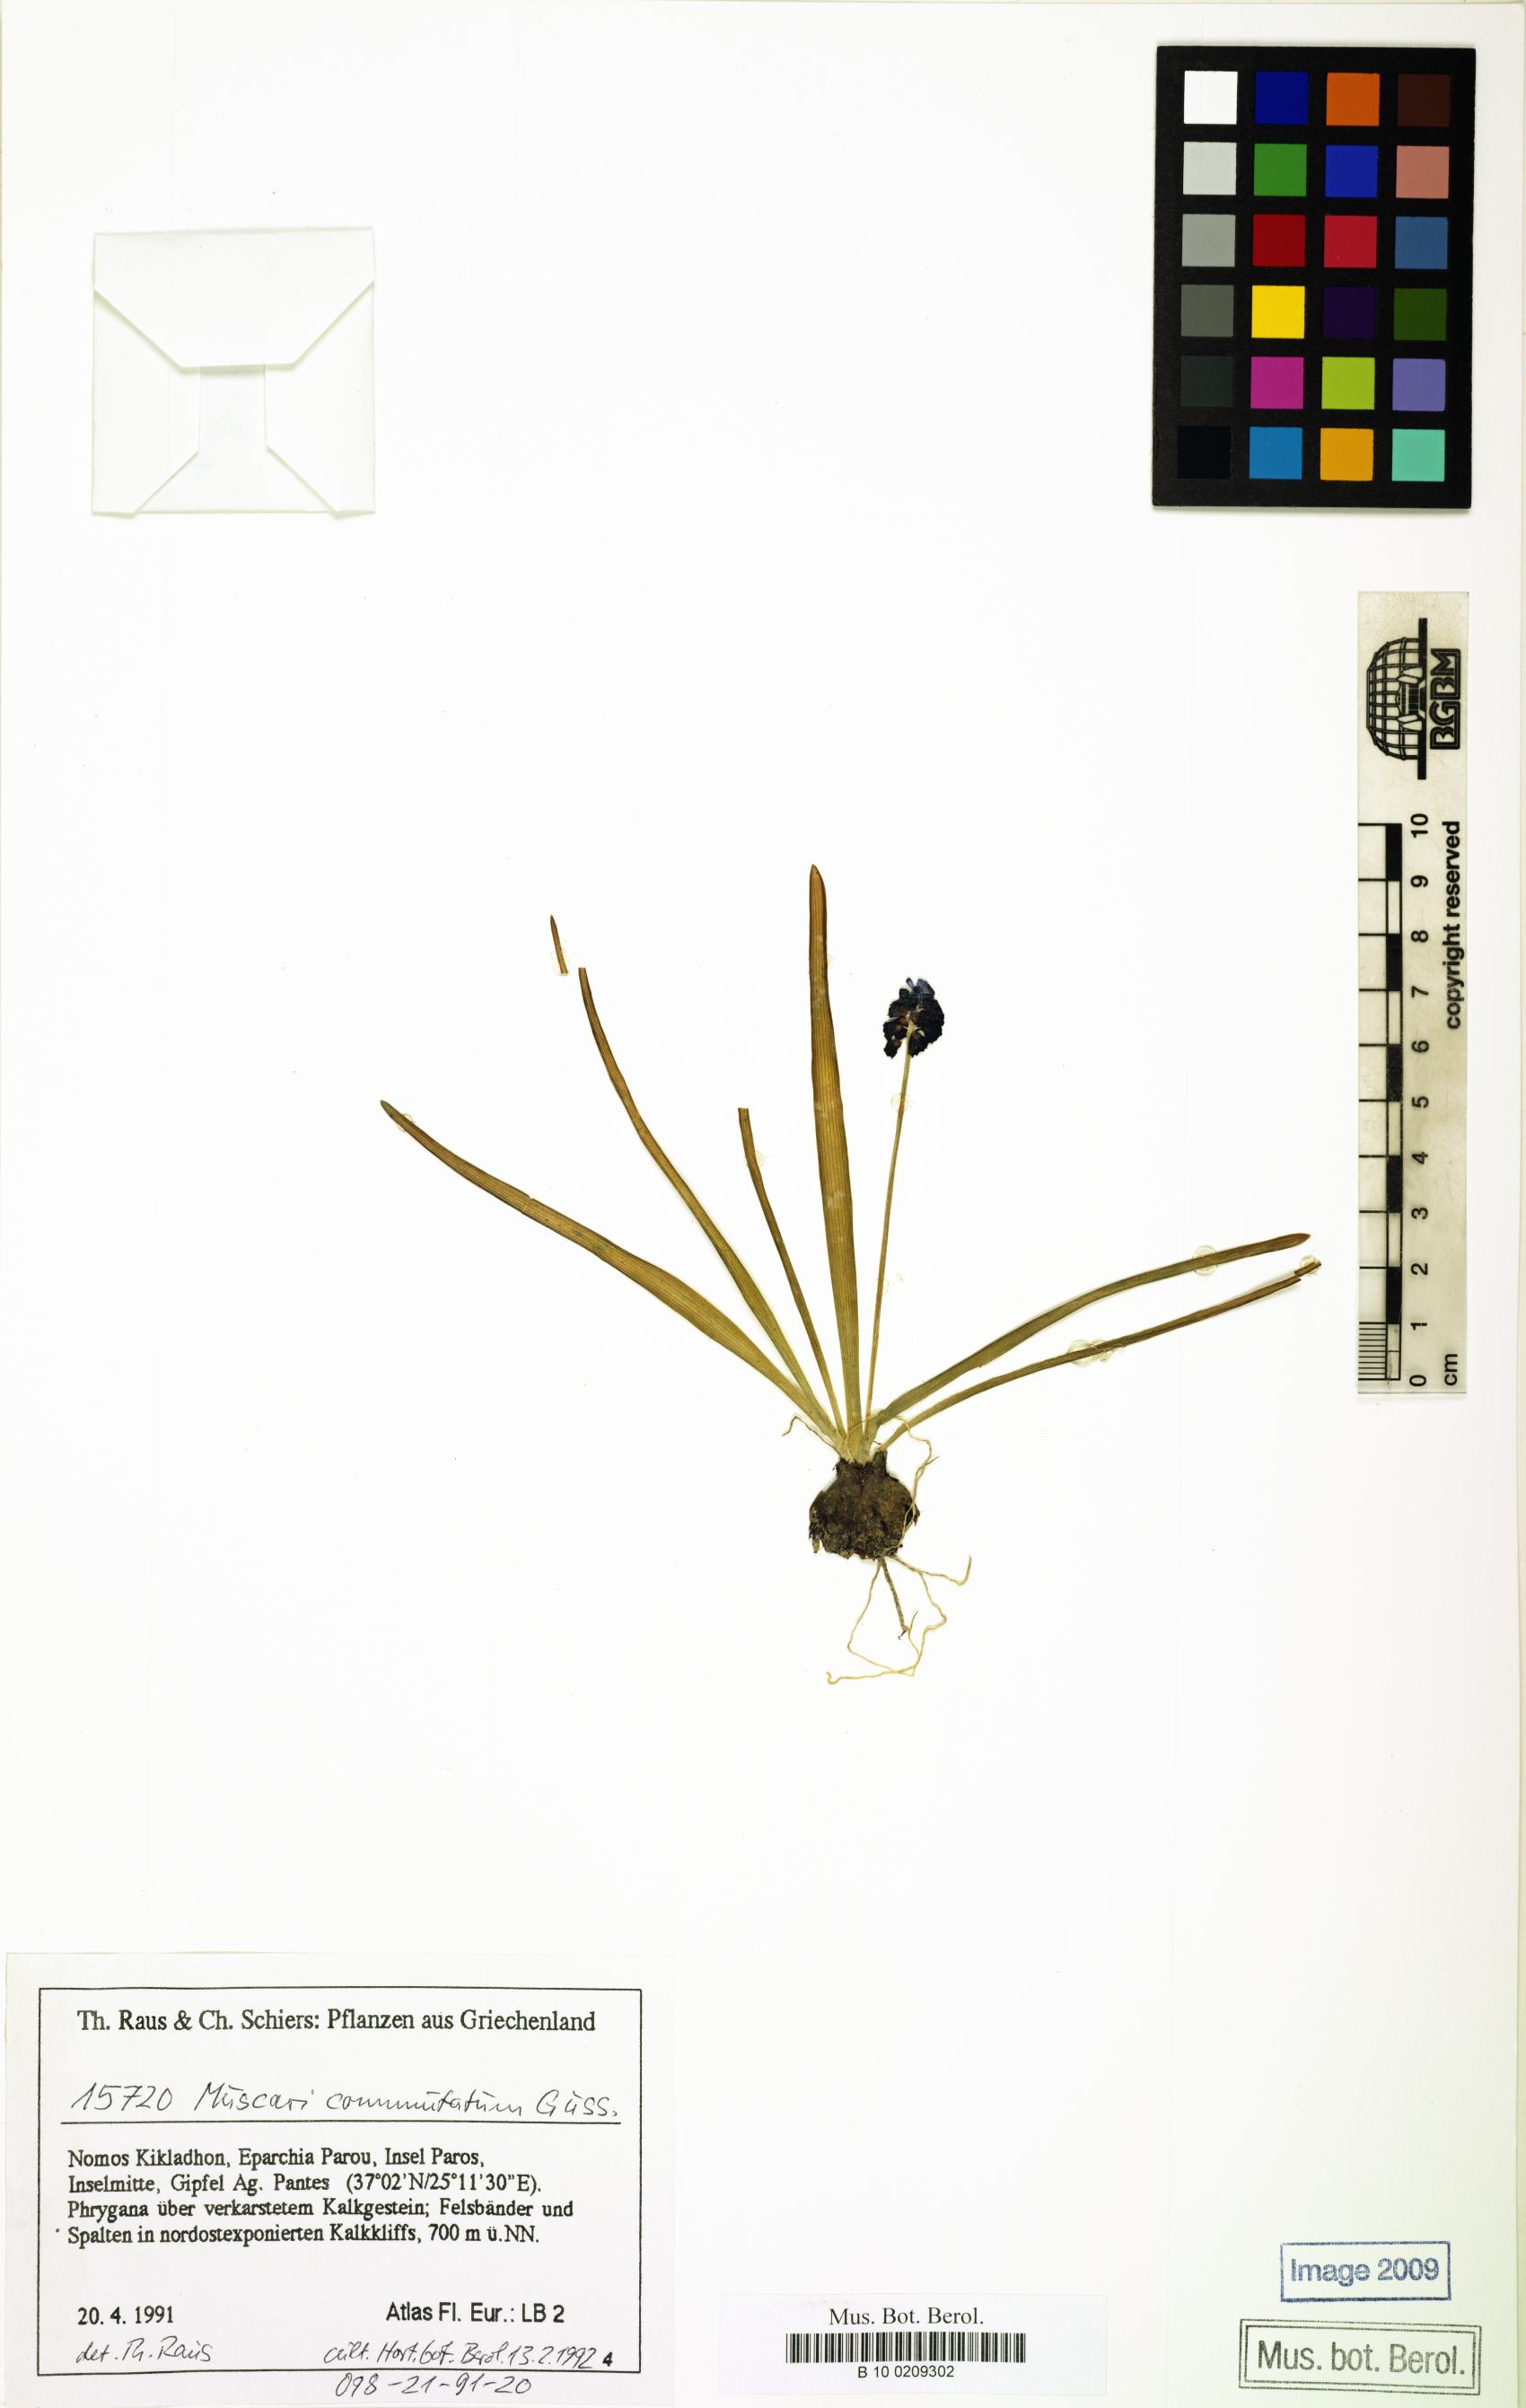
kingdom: Plantae
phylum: Tracheophyta
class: Liliopsida
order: Asparagales
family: Asparagaceae
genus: Muscari
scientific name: Muscari commutatum
